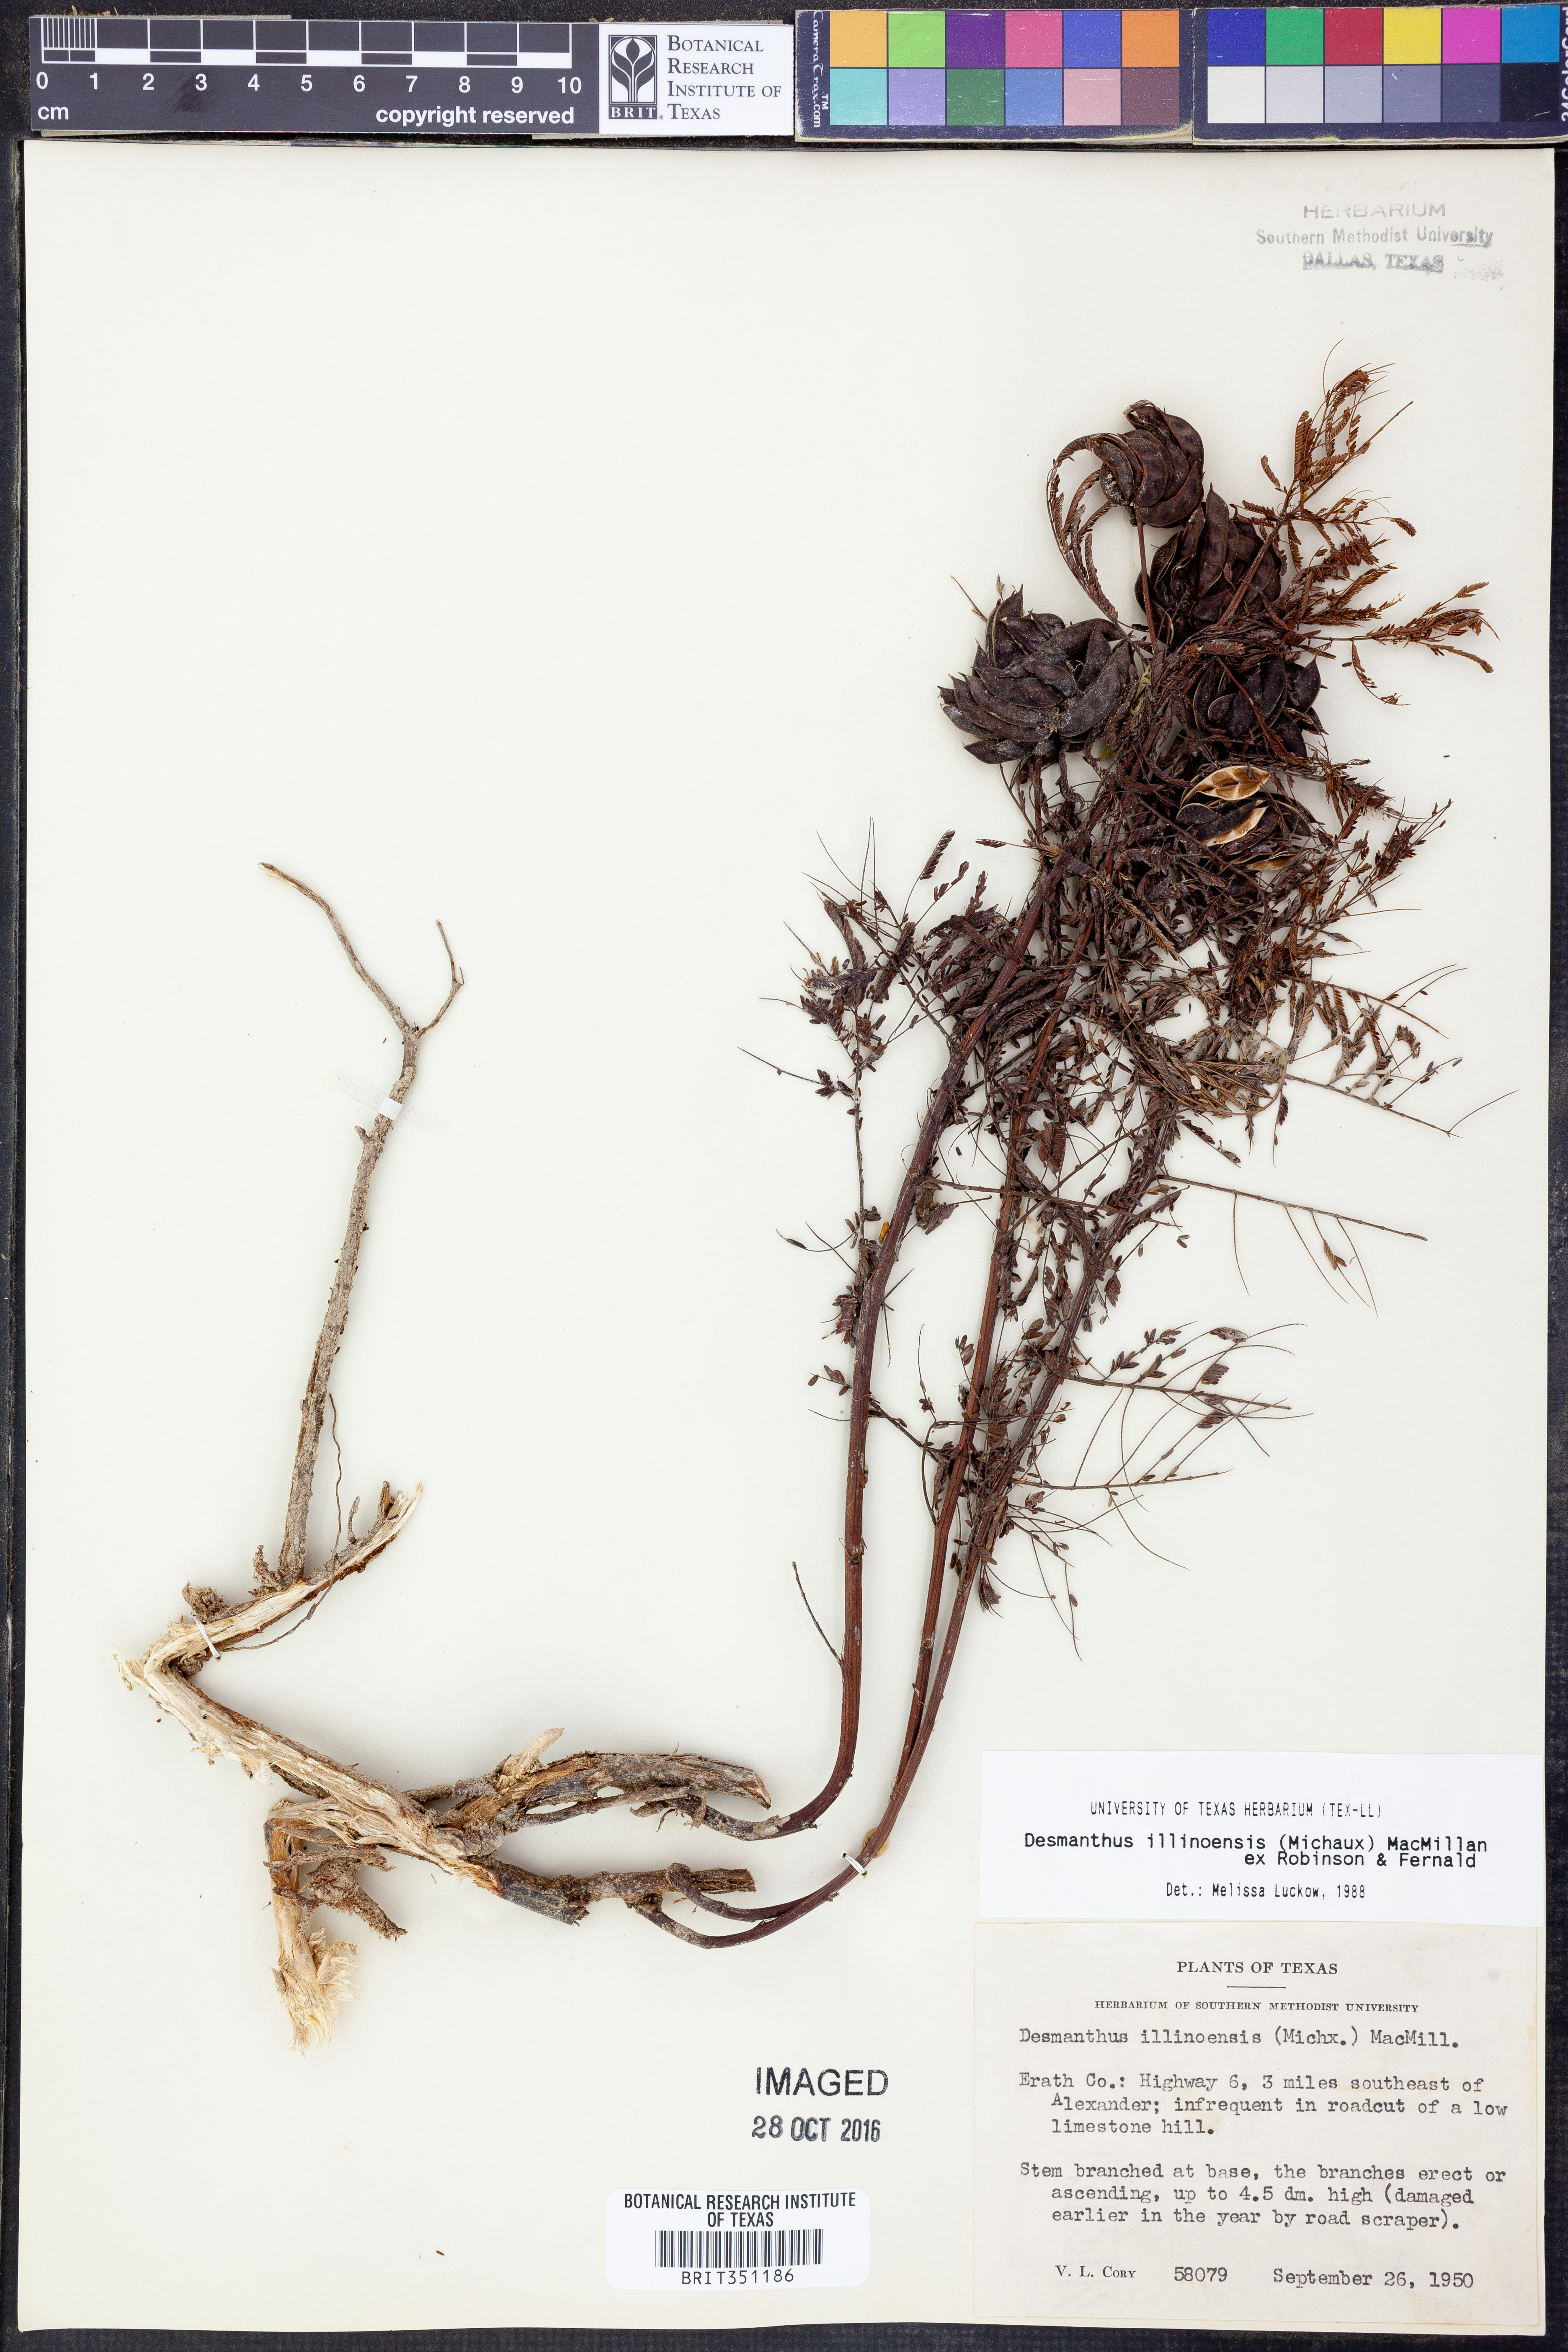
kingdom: Plantae
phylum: Tracheophyta
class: Magnoliopsida
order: Fabales
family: Fabaceae
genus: Desmanthus
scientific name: Desmanthus illinoensis
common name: Illinois bundle-flower
